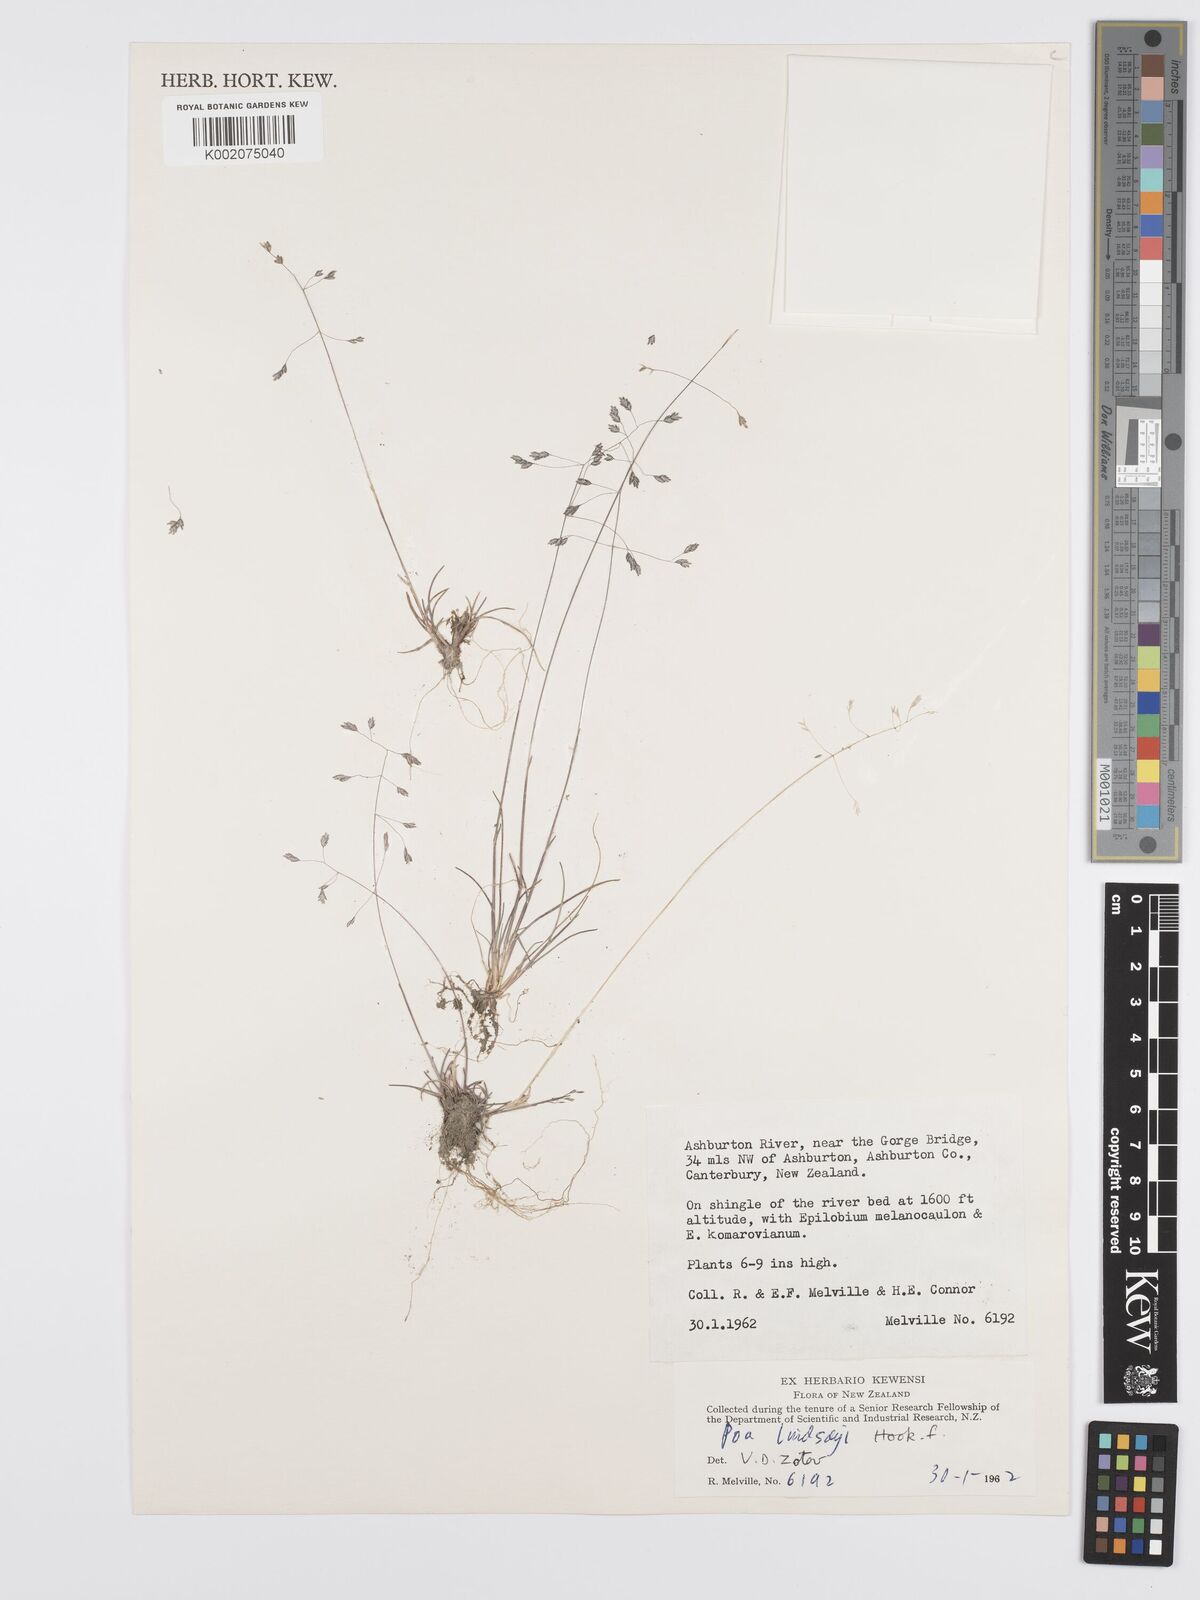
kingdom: Plantae
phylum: Tracheophyta
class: Liliopsida
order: Poales
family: Poaceae
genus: Poa
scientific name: Poa lindsayi
